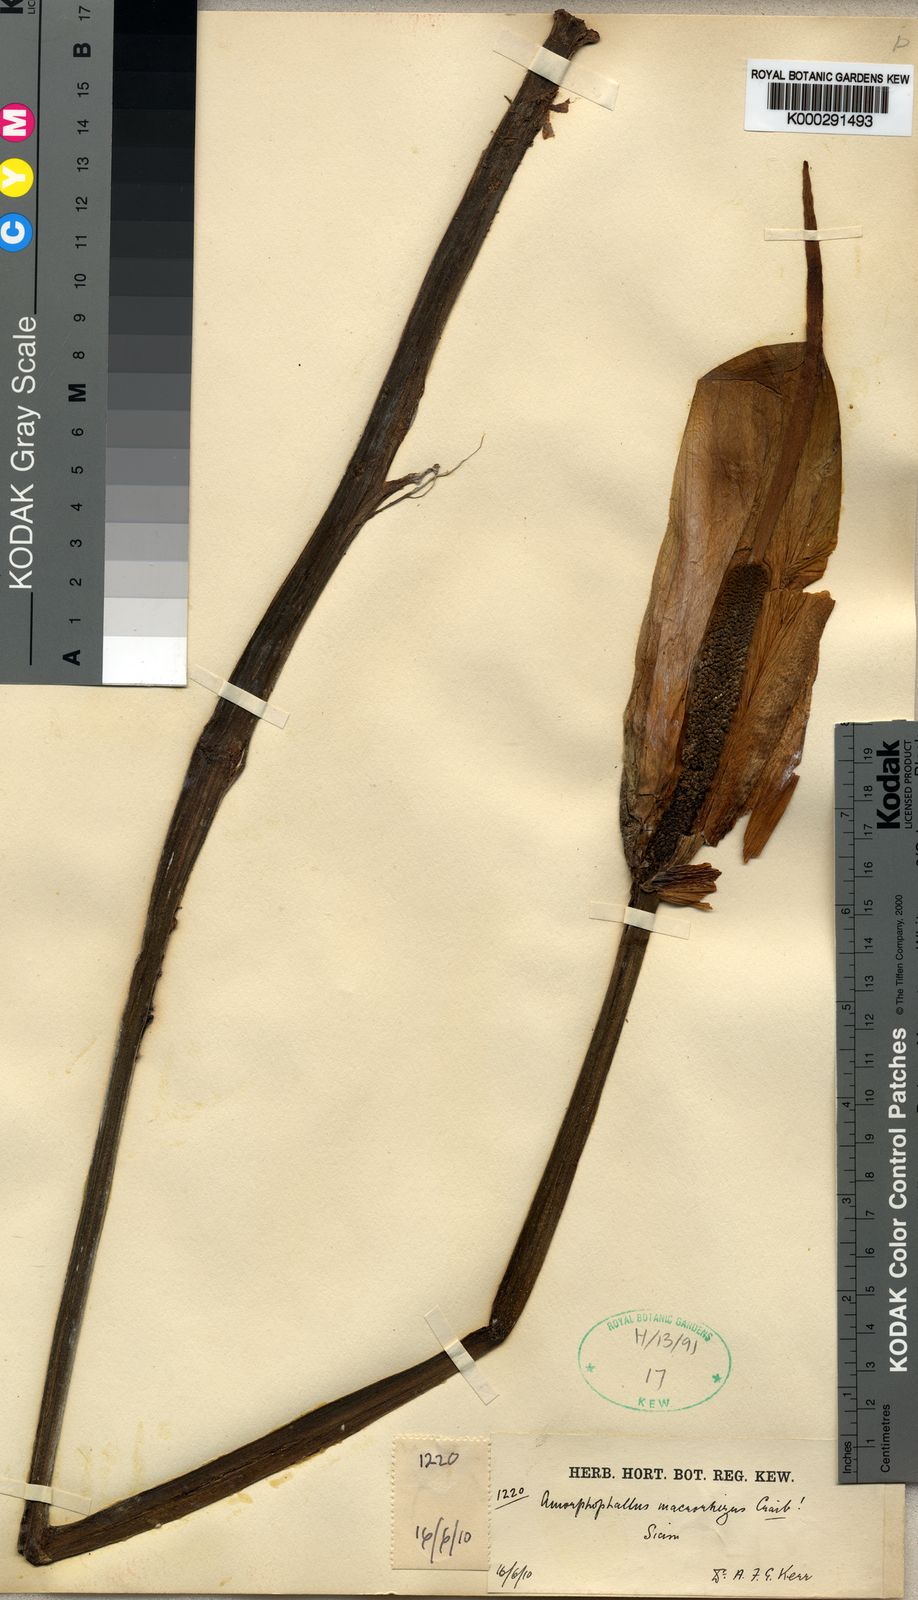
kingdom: Plantae
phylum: Tracheophyta
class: Liliopsida
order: Alismatales
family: Araceae
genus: Amorphophallus
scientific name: Amorphophallus macrorhizus
